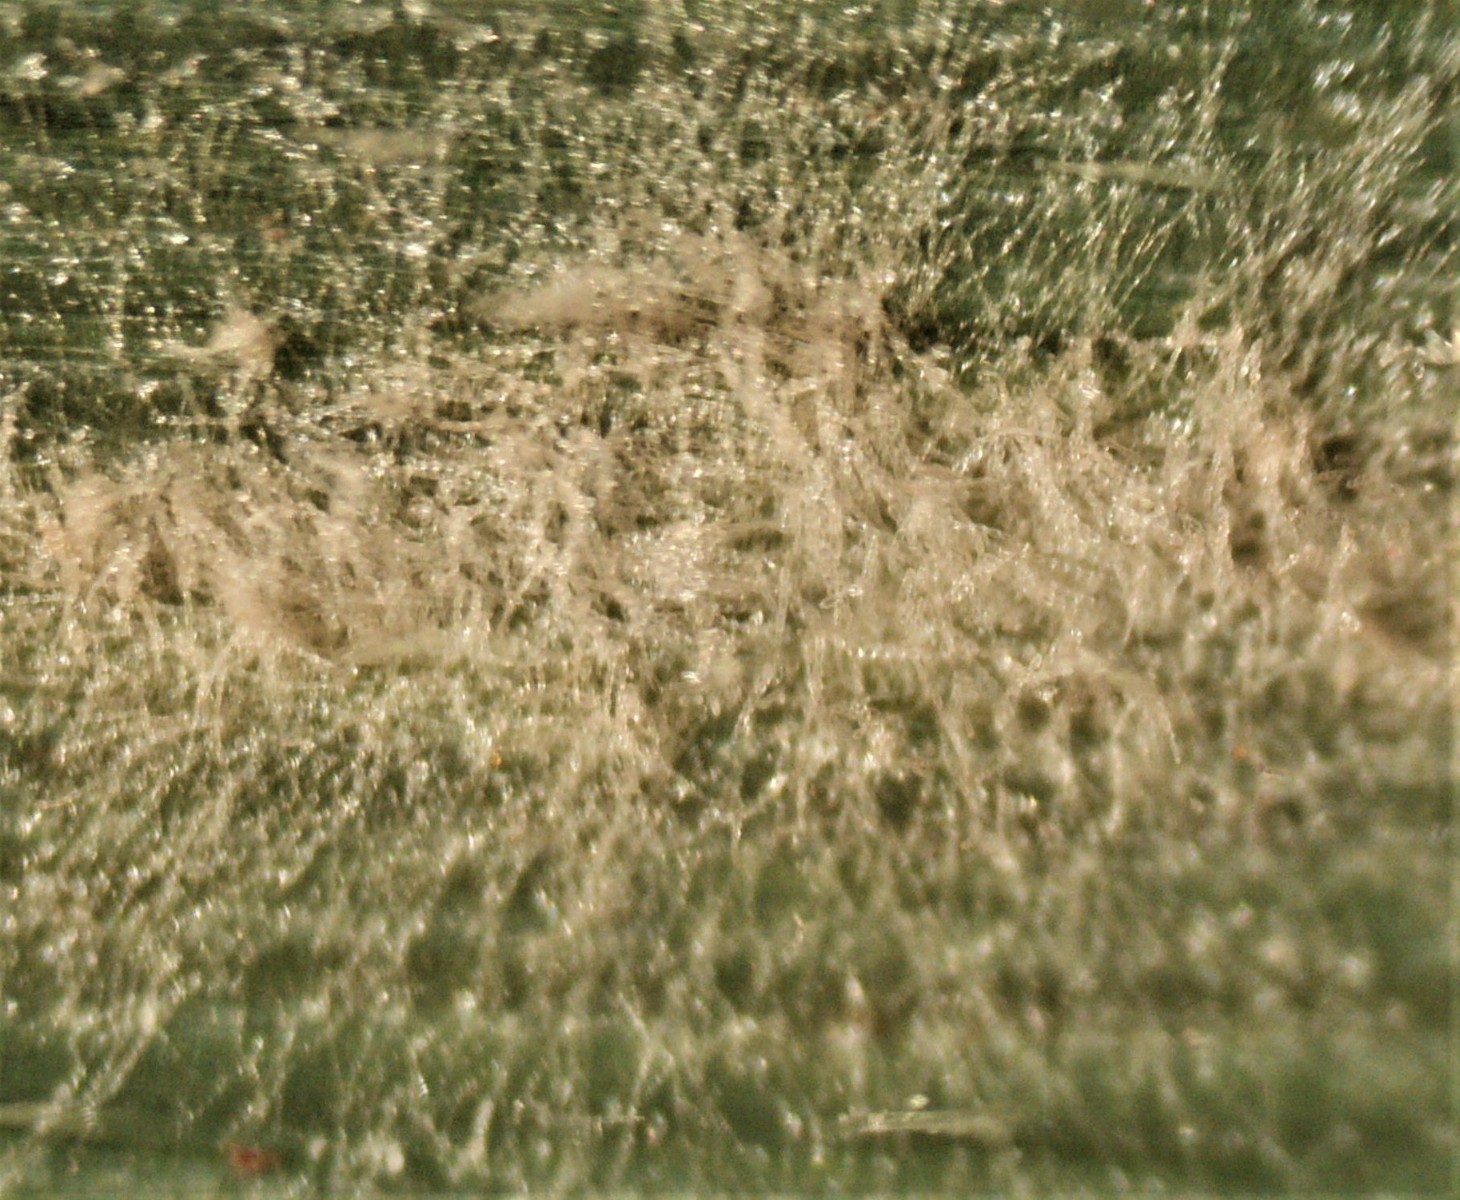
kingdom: Fungi
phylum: Ascomycota
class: Leotiomycetes
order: Helotiales
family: Erysiphaceae
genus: Blumeria
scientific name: Blumeria graminis
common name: græs-meldug
